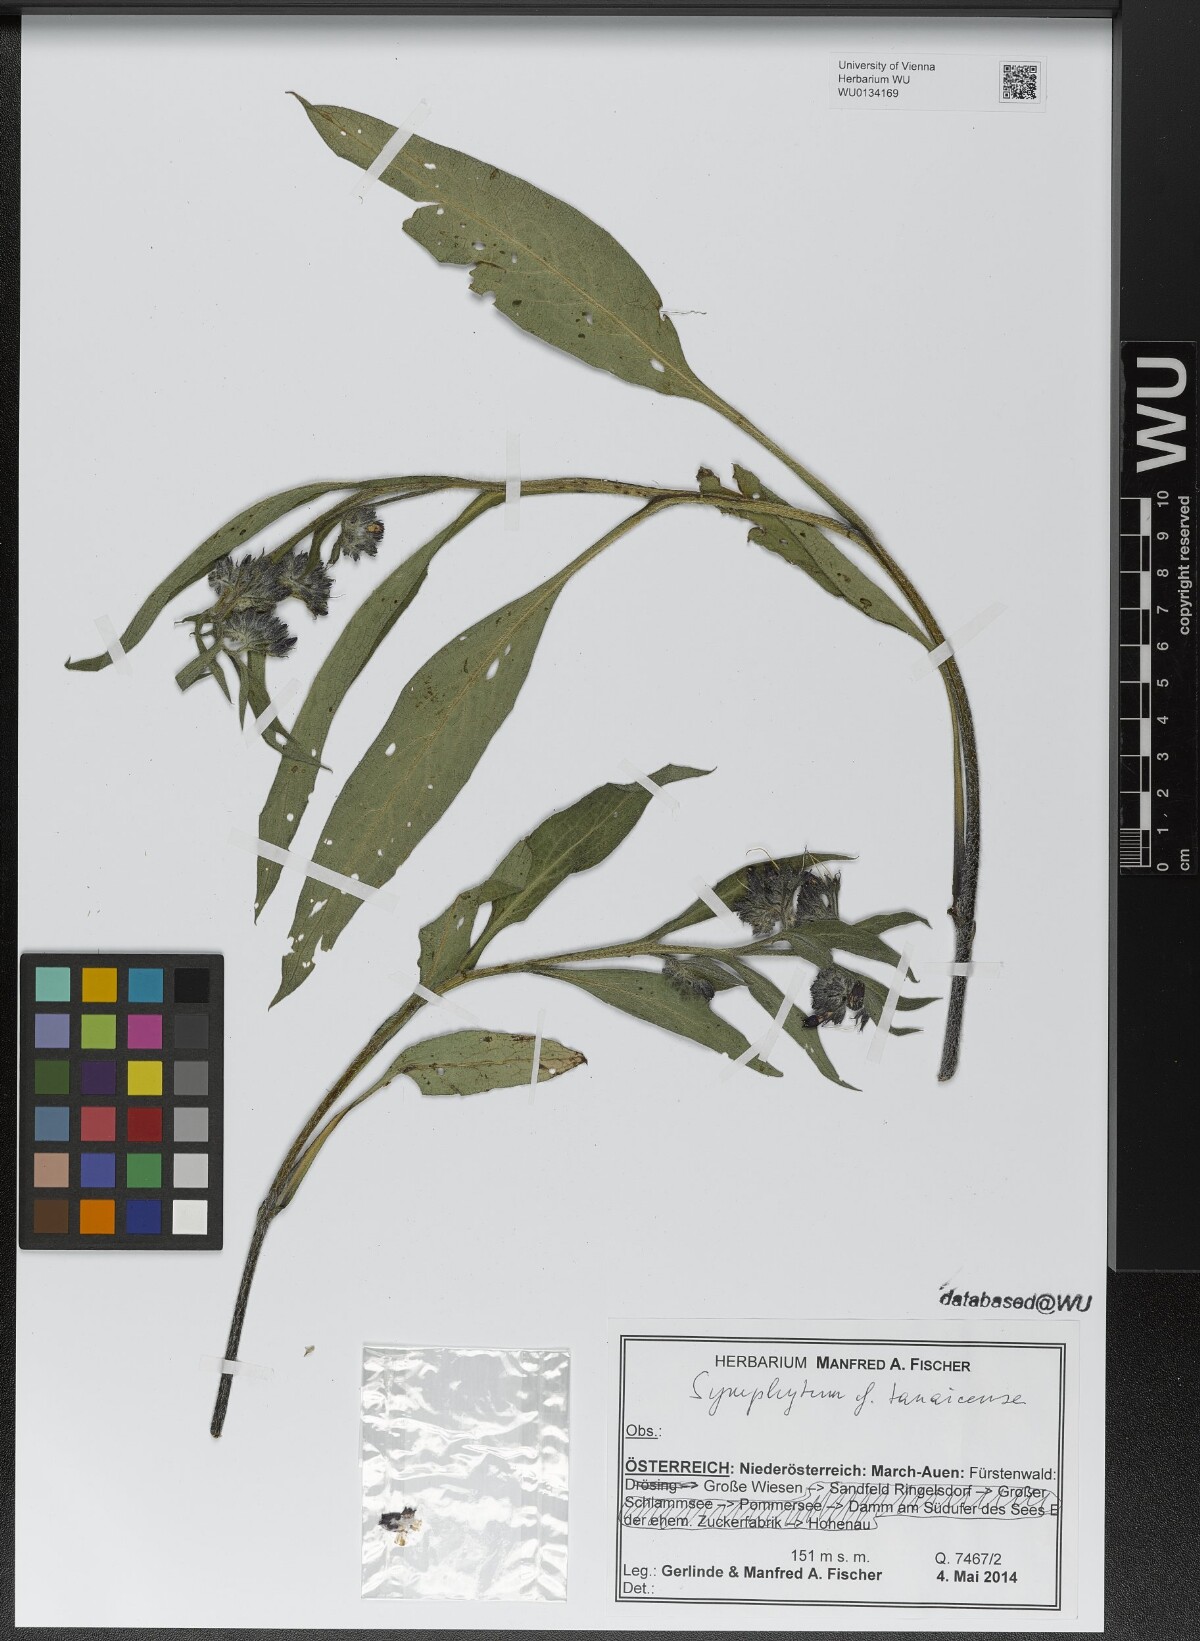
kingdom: Plantae
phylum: Tracheophyta
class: Magnoliopsida
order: Boraginales
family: Boraginaceae
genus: Symphytum
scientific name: Symphytum tanaicense
